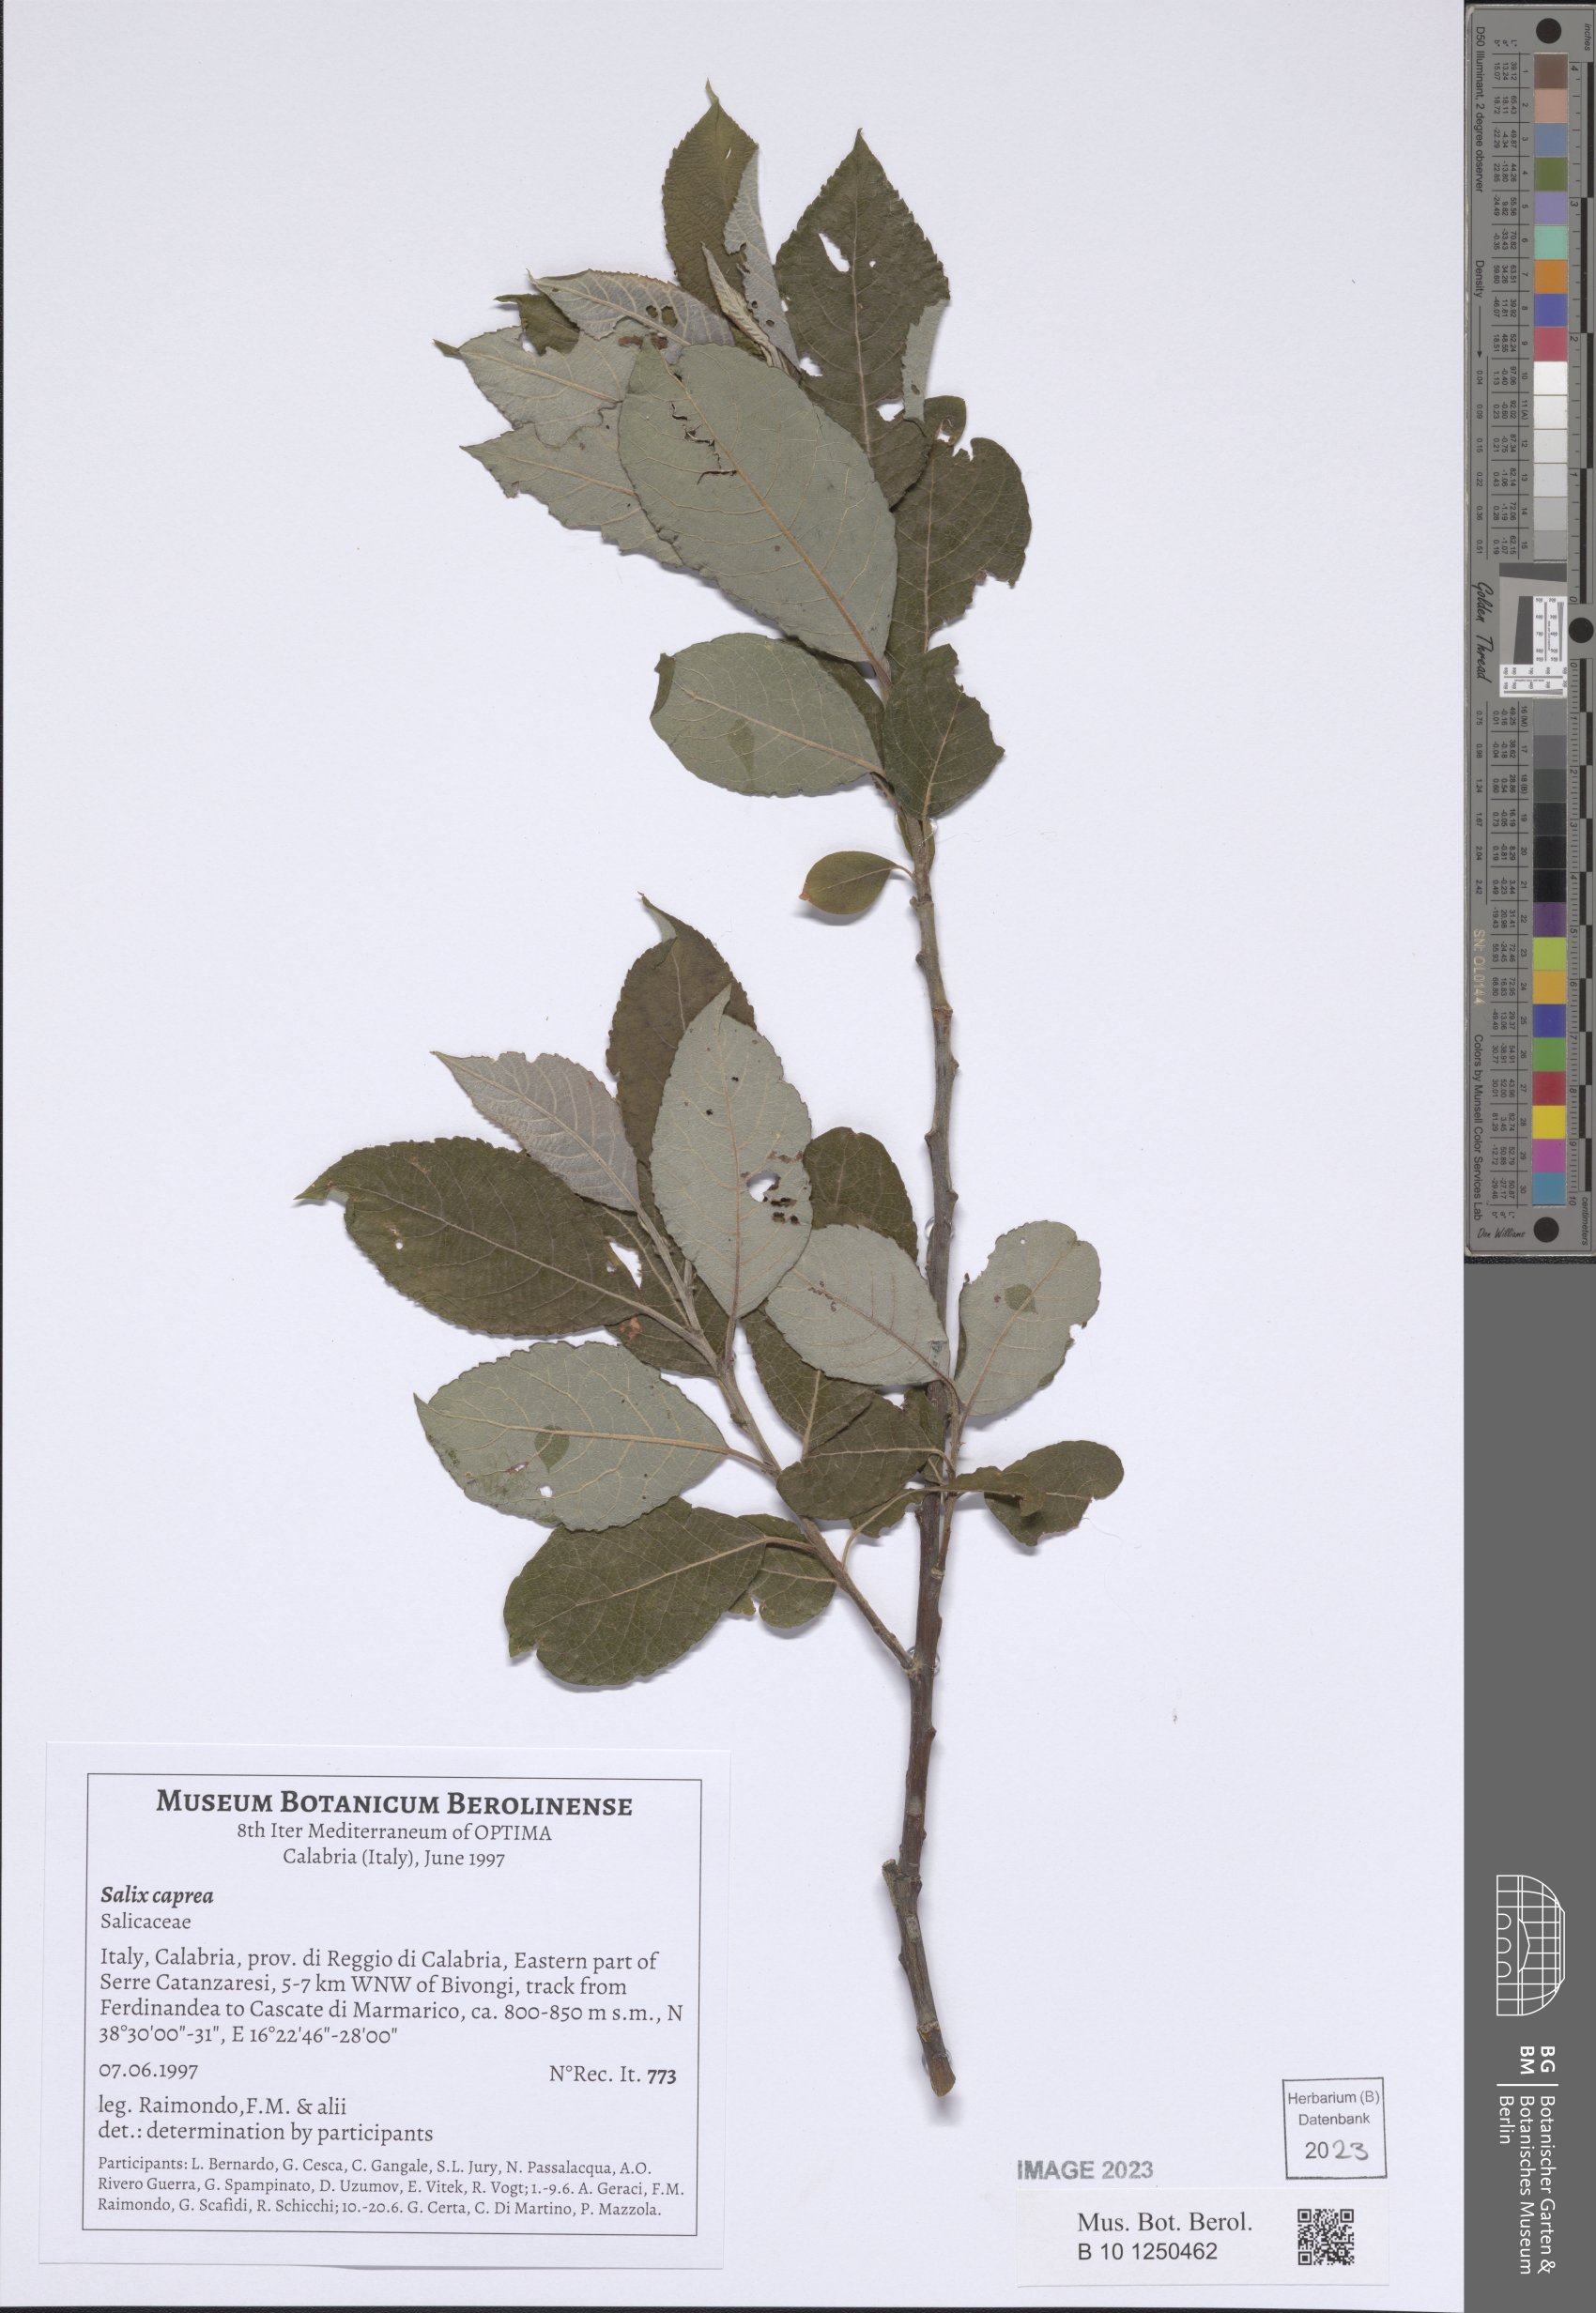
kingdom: Plantae
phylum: Tracheophyta
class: Magnoliopsida
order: Malpighiales
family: Salicaceae
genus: Salix
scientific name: Salix caprea
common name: Goat willow
